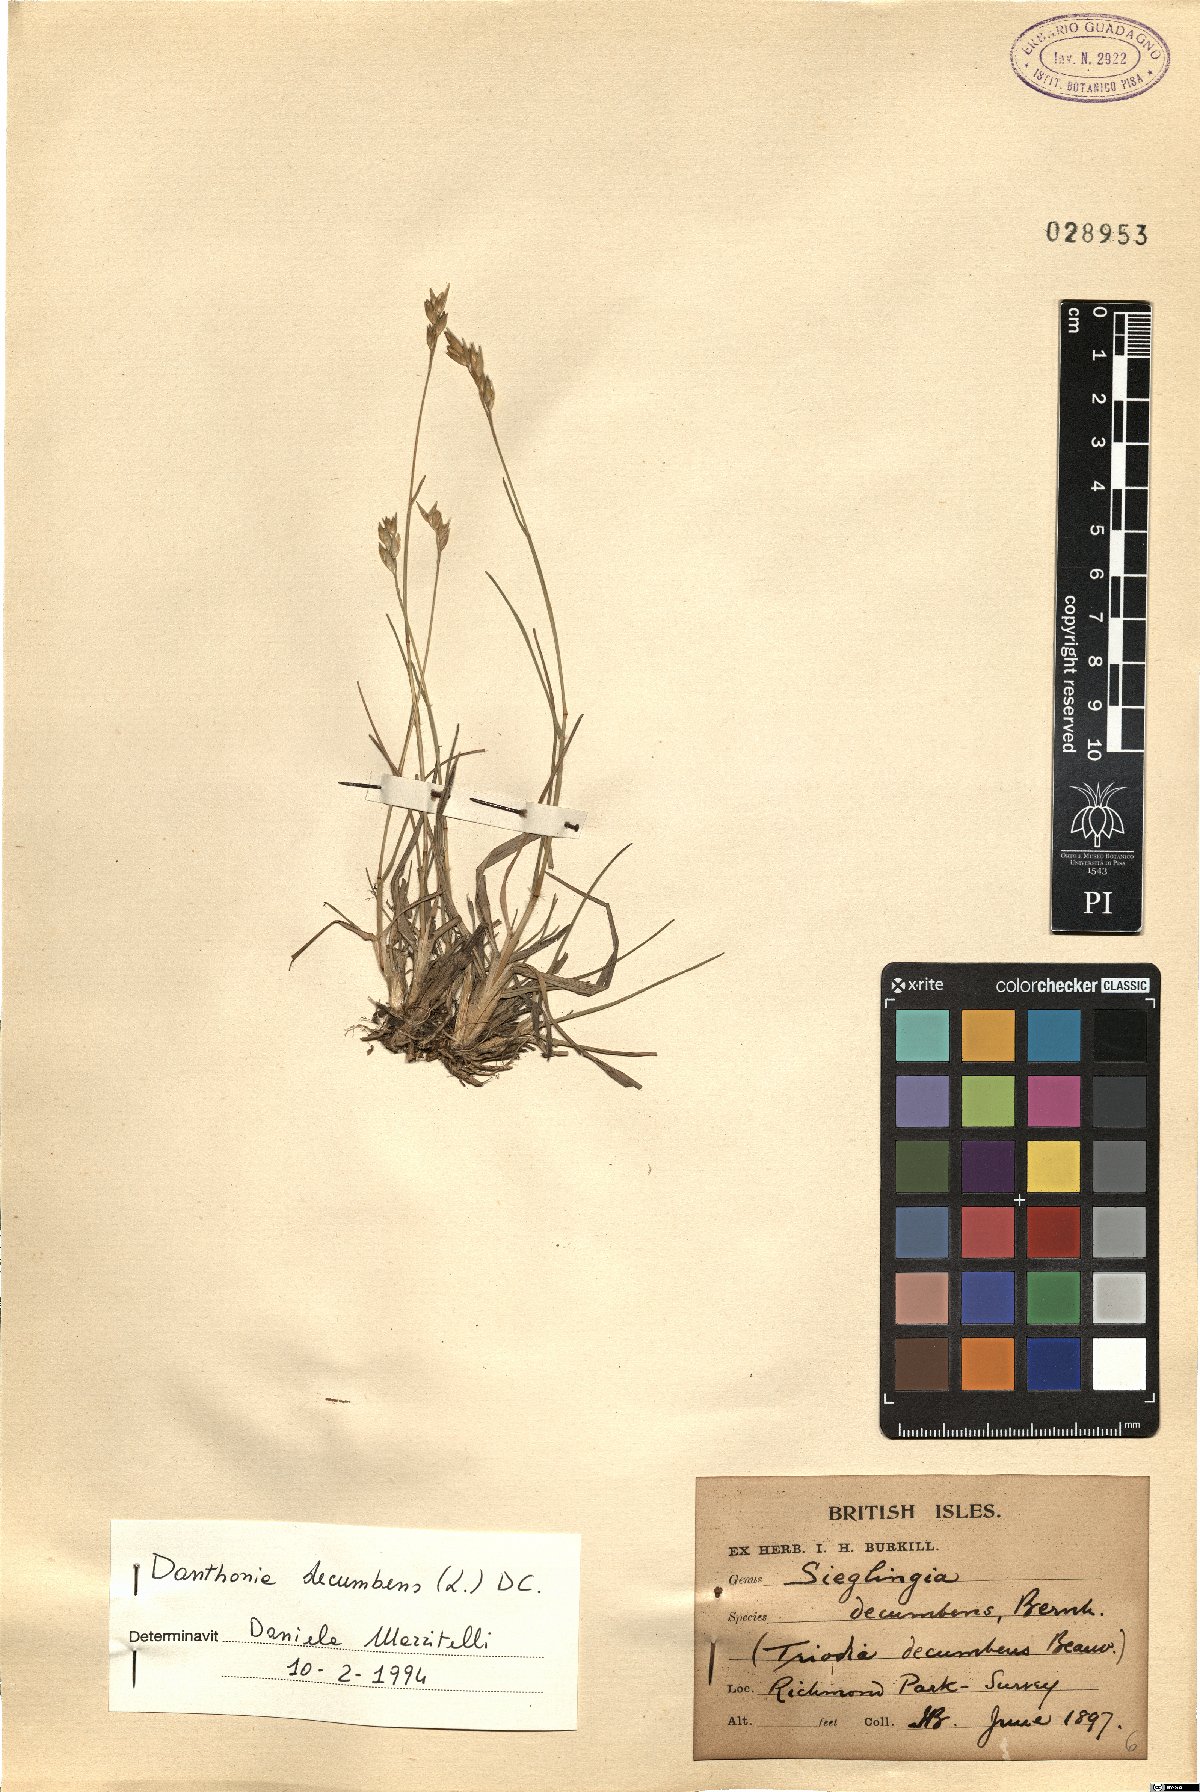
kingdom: Plantae
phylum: Tracheophyta
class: Liliopsida
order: Poales
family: Poaceae
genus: Danthonia
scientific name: Danthonia decumbens
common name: Common heathgrass
